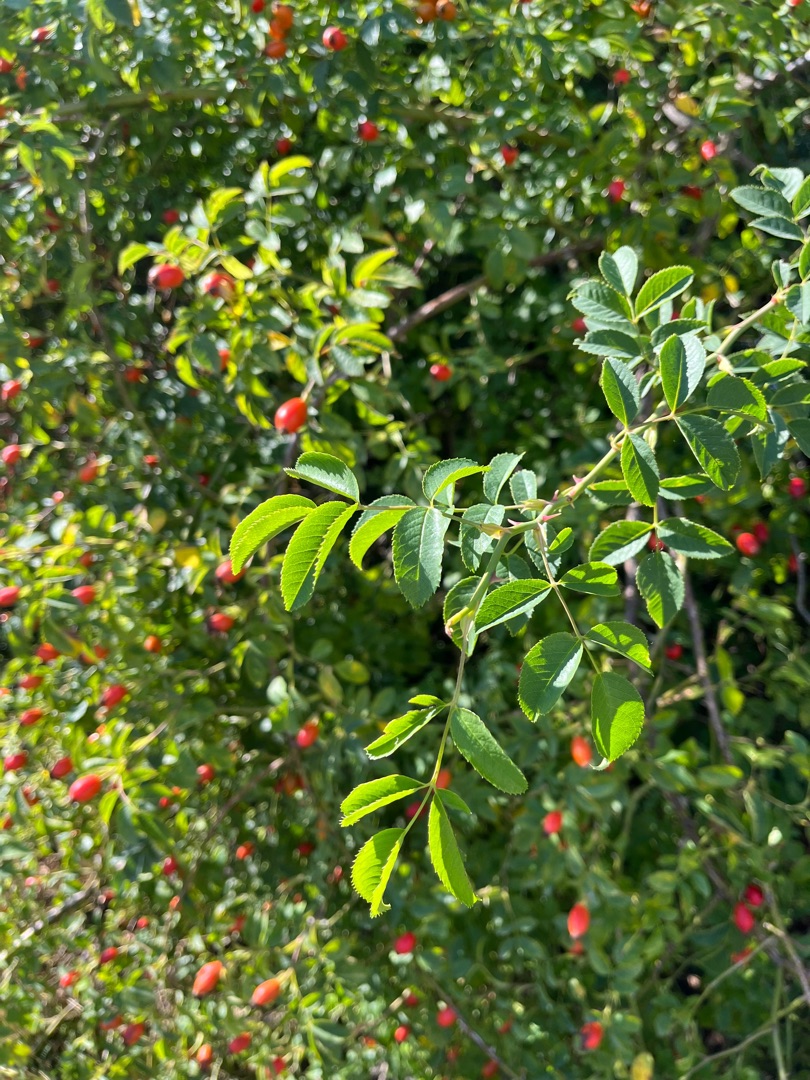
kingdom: Plantae
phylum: Tracheophyta
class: Magnoliopsida
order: Rosales
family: Rosaceae
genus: Rosa
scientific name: Rosa canina
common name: Hunde-rose
